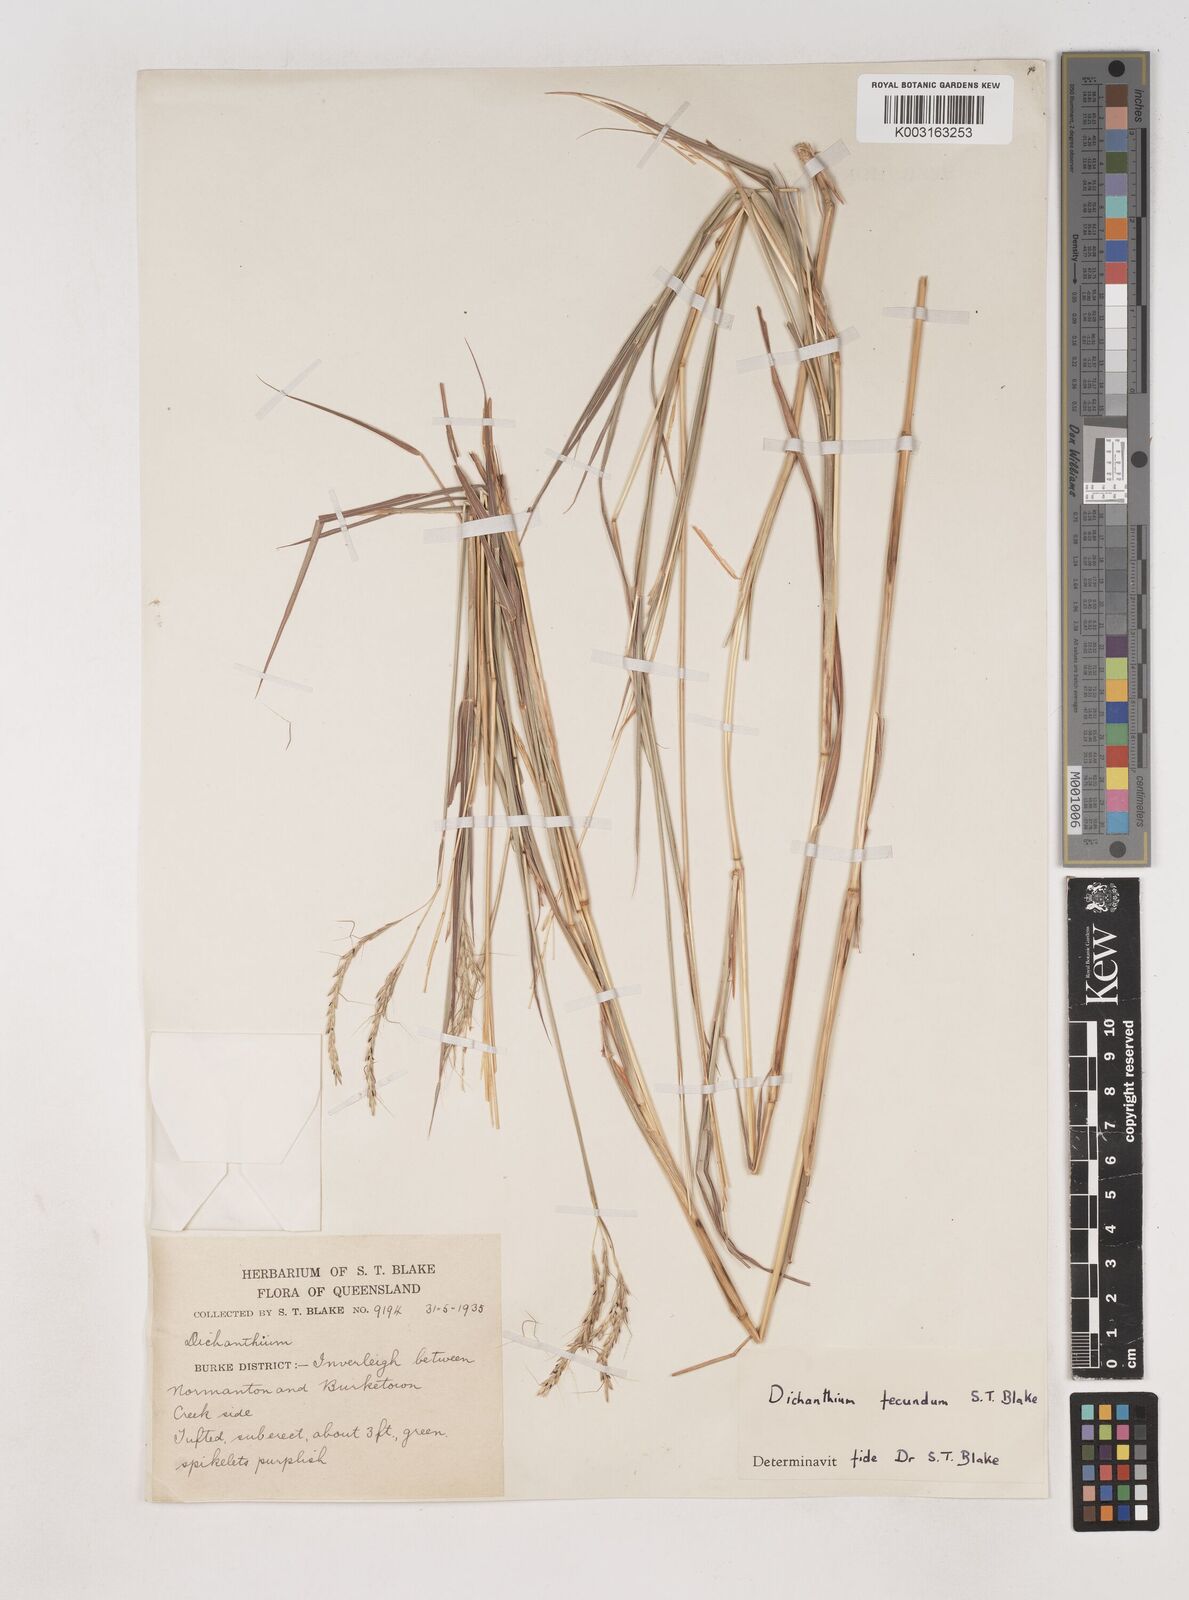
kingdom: Plantae
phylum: Tracheophyta
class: Liliopsida
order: Poales
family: Poaceae
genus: Dichanthium
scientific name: Dichanthium annulatum
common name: Kleberg's bluestem
